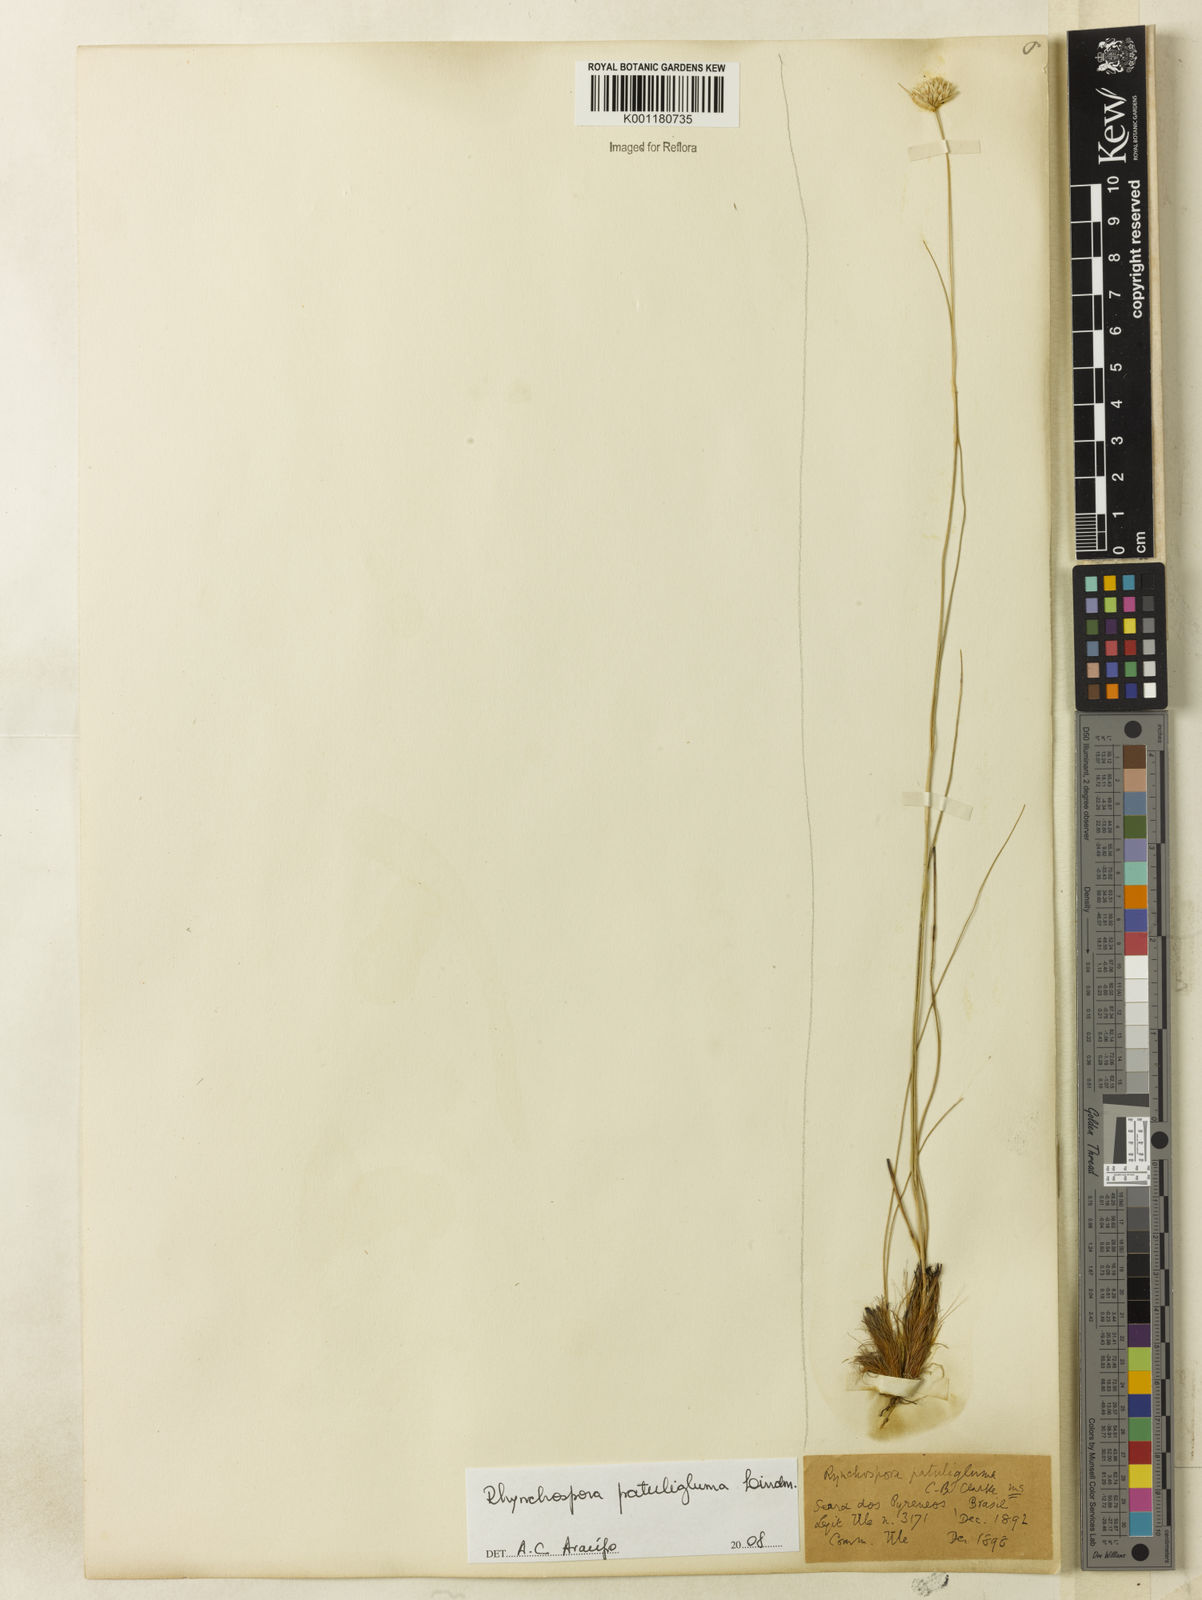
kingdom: Plantae
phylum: Tracheophyta
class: Liliopsida
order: Poales
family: Cyperaceae
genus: Rhynchospora
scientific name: Rhynchospora patuligluma
